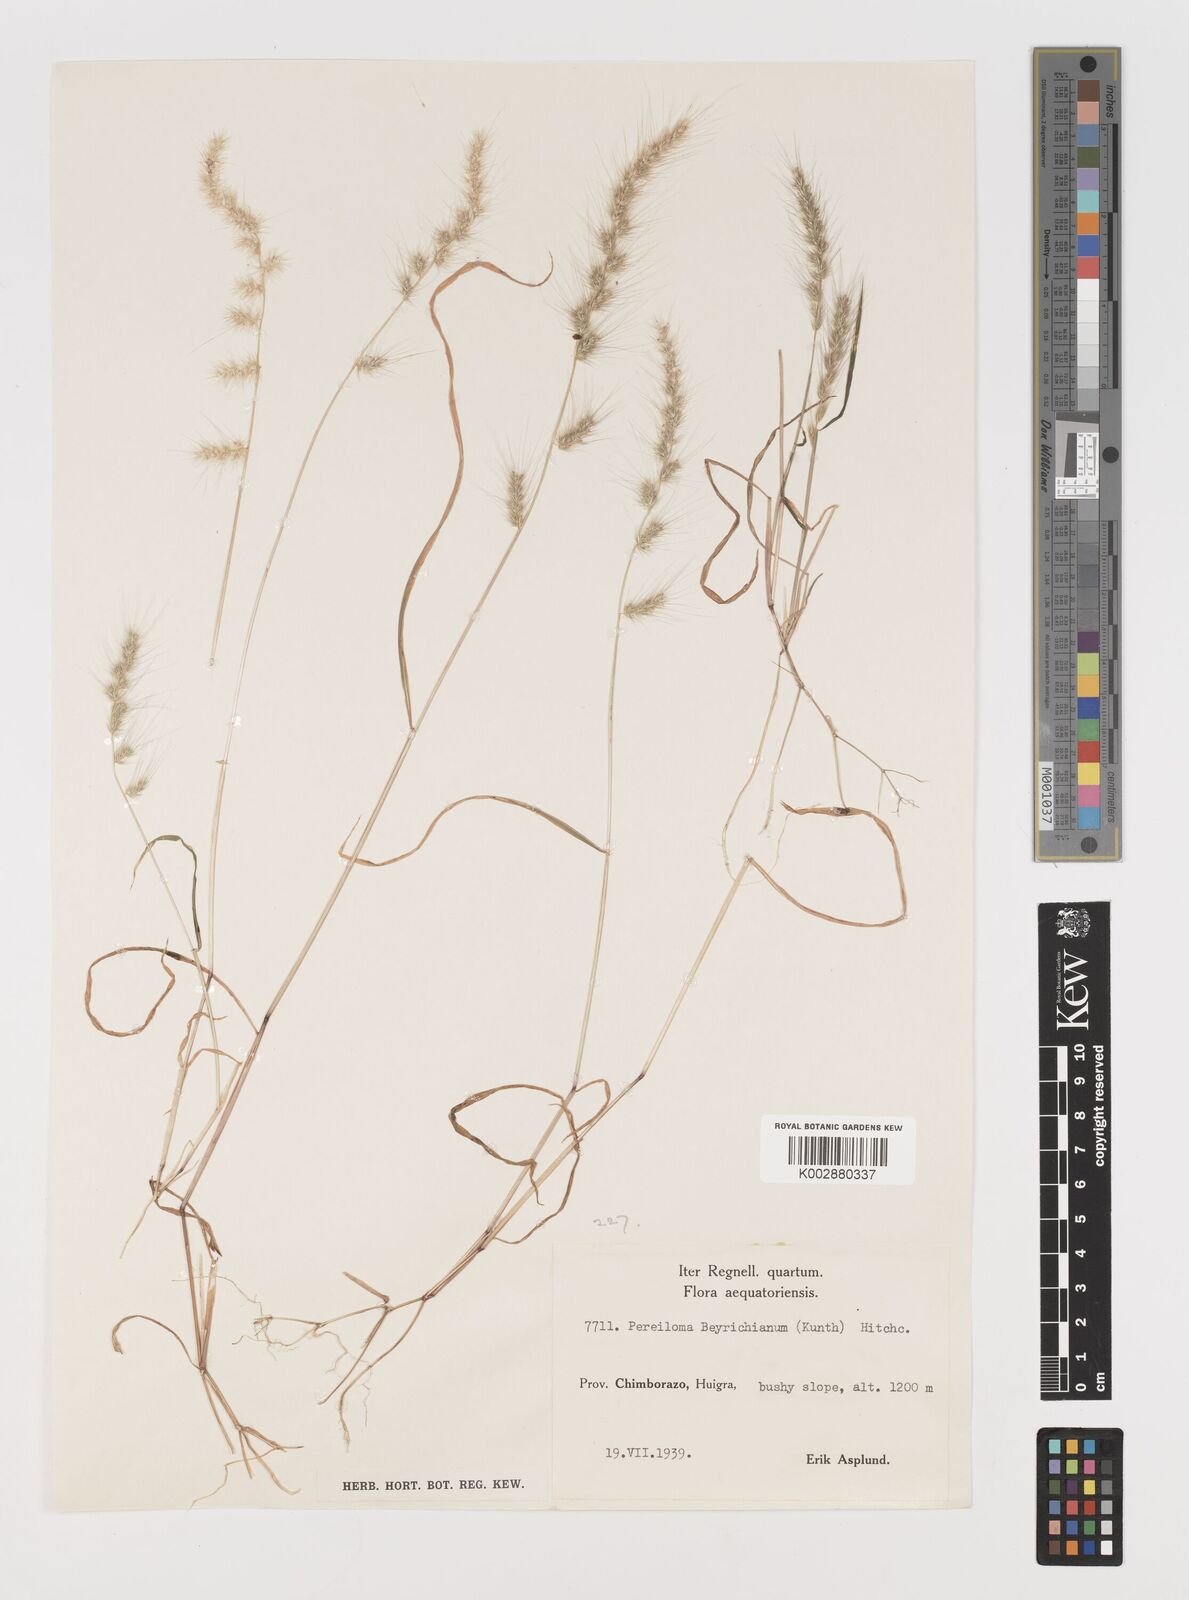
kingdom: Plantae
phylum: Tracheophyta
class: Liliopsida
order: Poales
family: Poaceae
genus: Muhlenbergia
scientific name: Muhlenbergia beyrichiana
